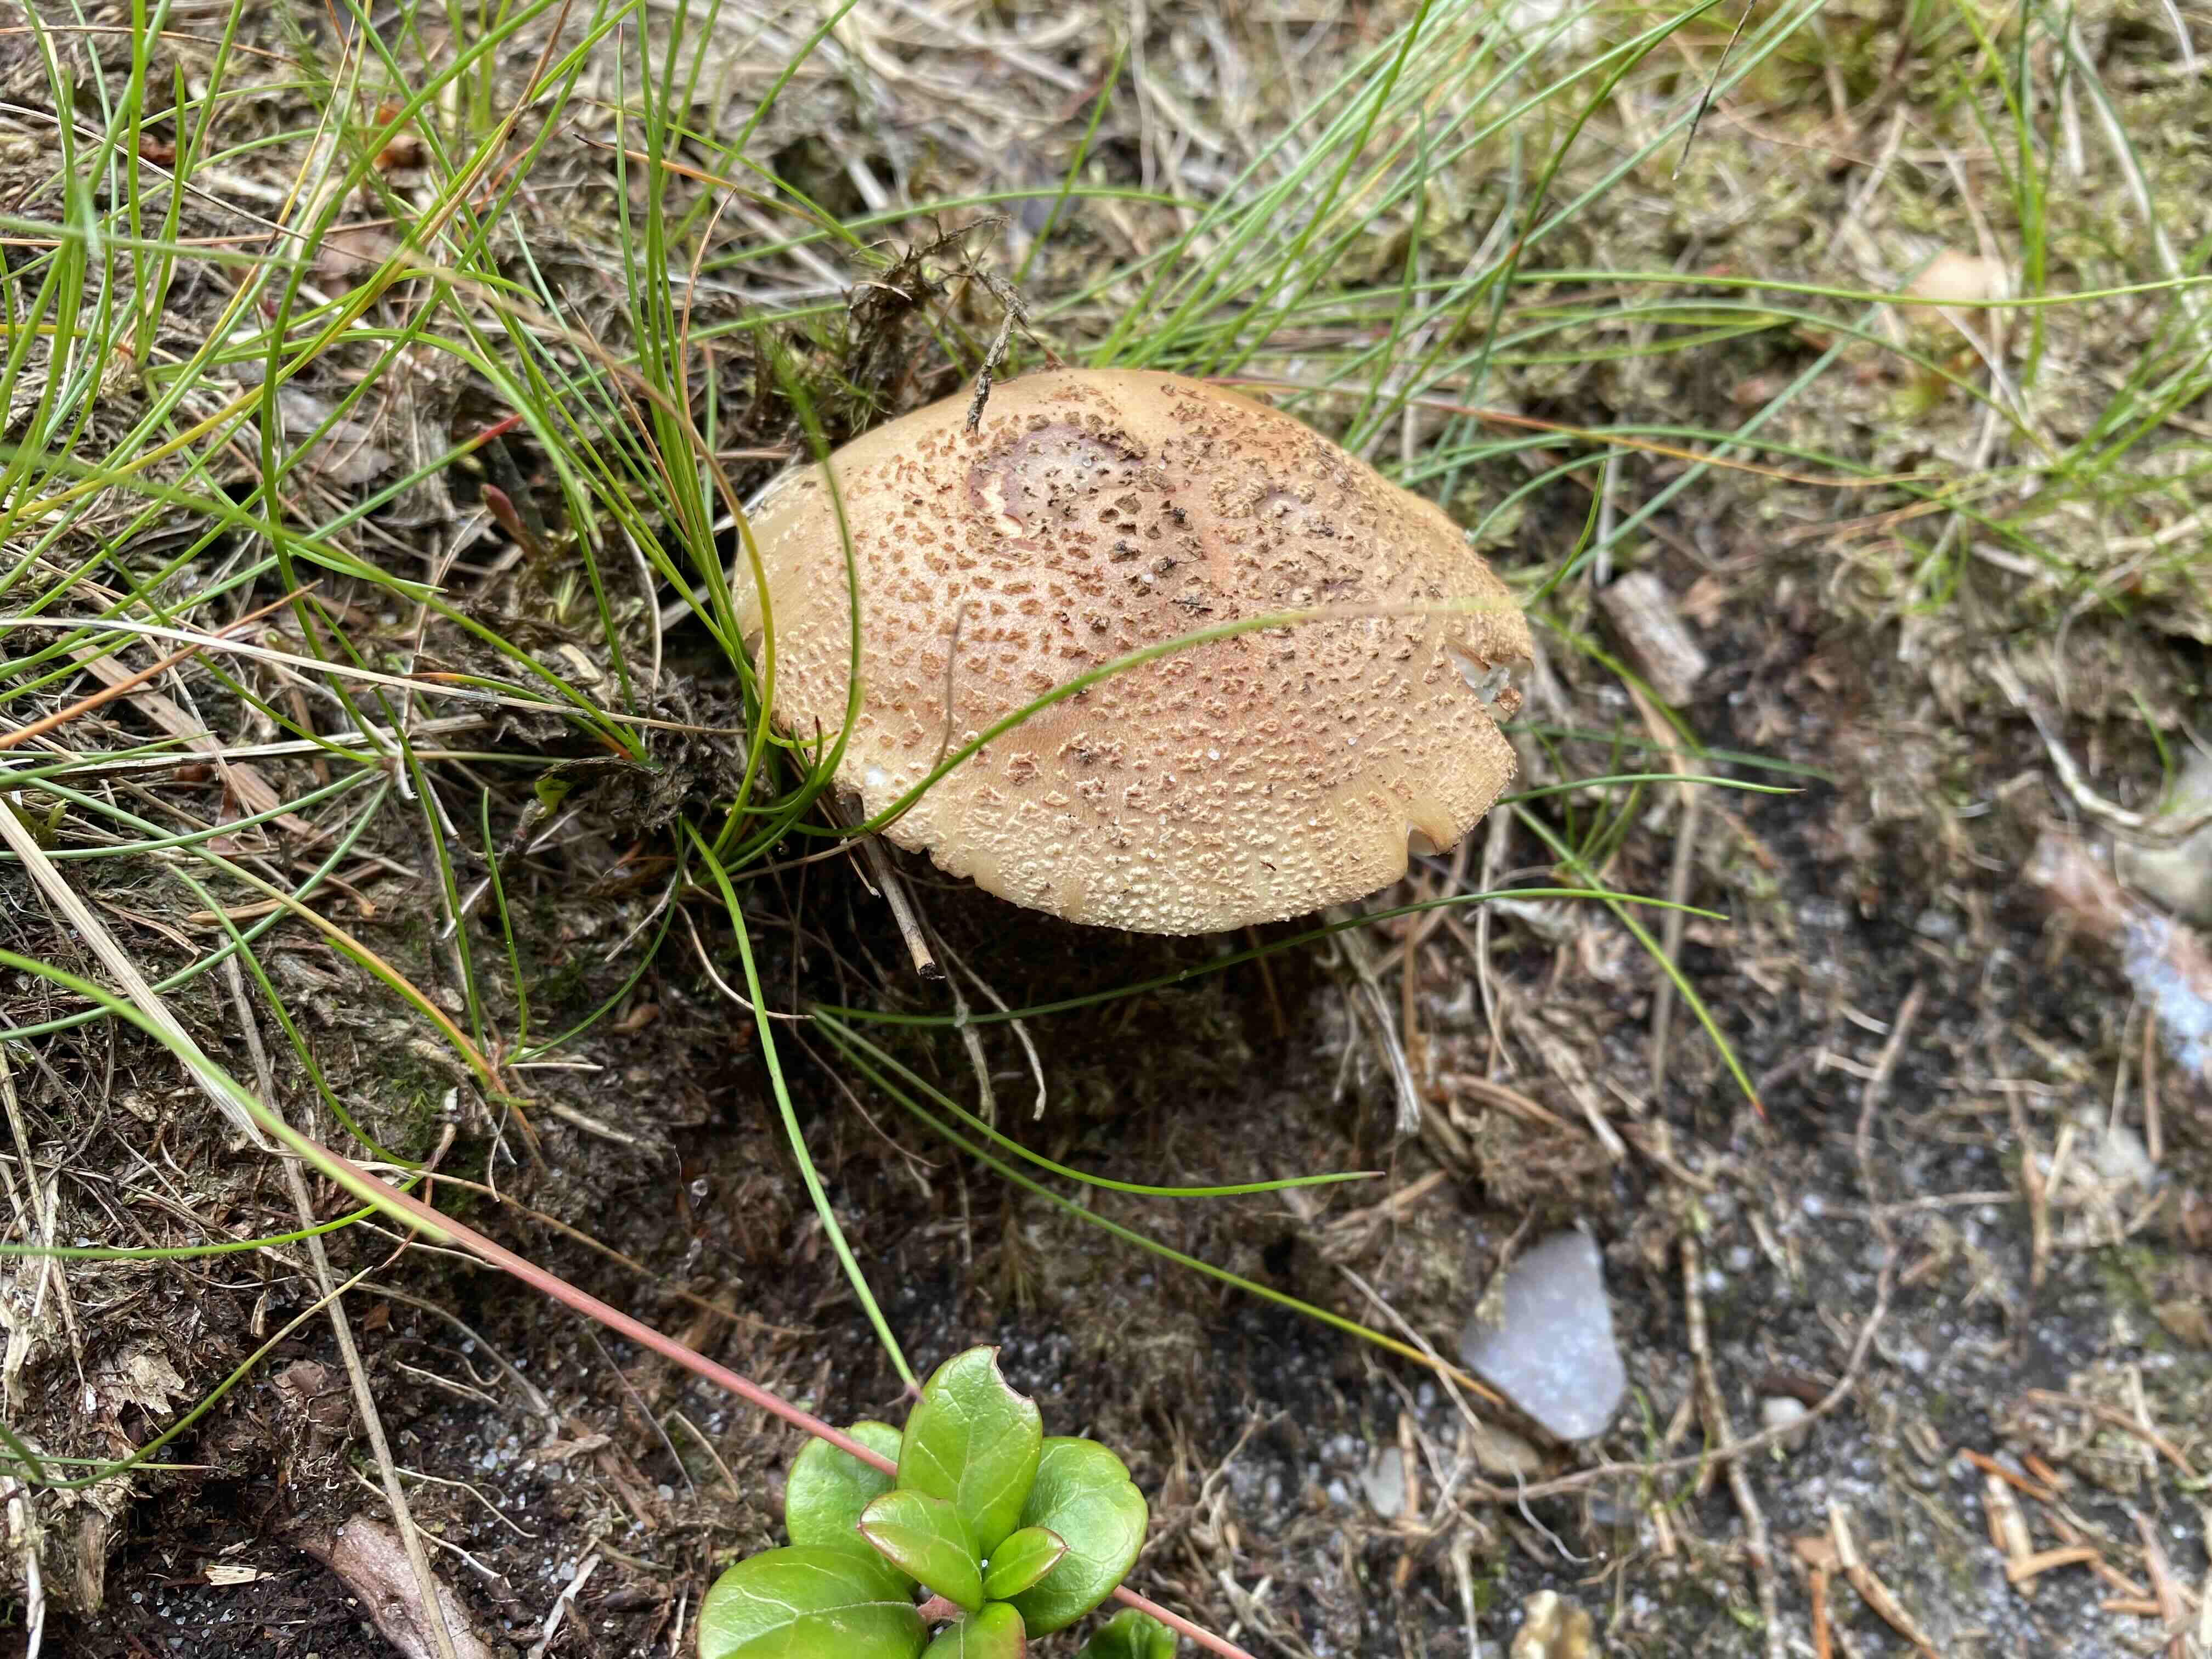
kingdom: Fungi
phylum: Basidiomycota
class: Agaricomycetes
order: Agaricales
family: Amanitaceae
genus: Amanita
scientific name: Amanita rubescens
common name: rødmende fluesvamp
